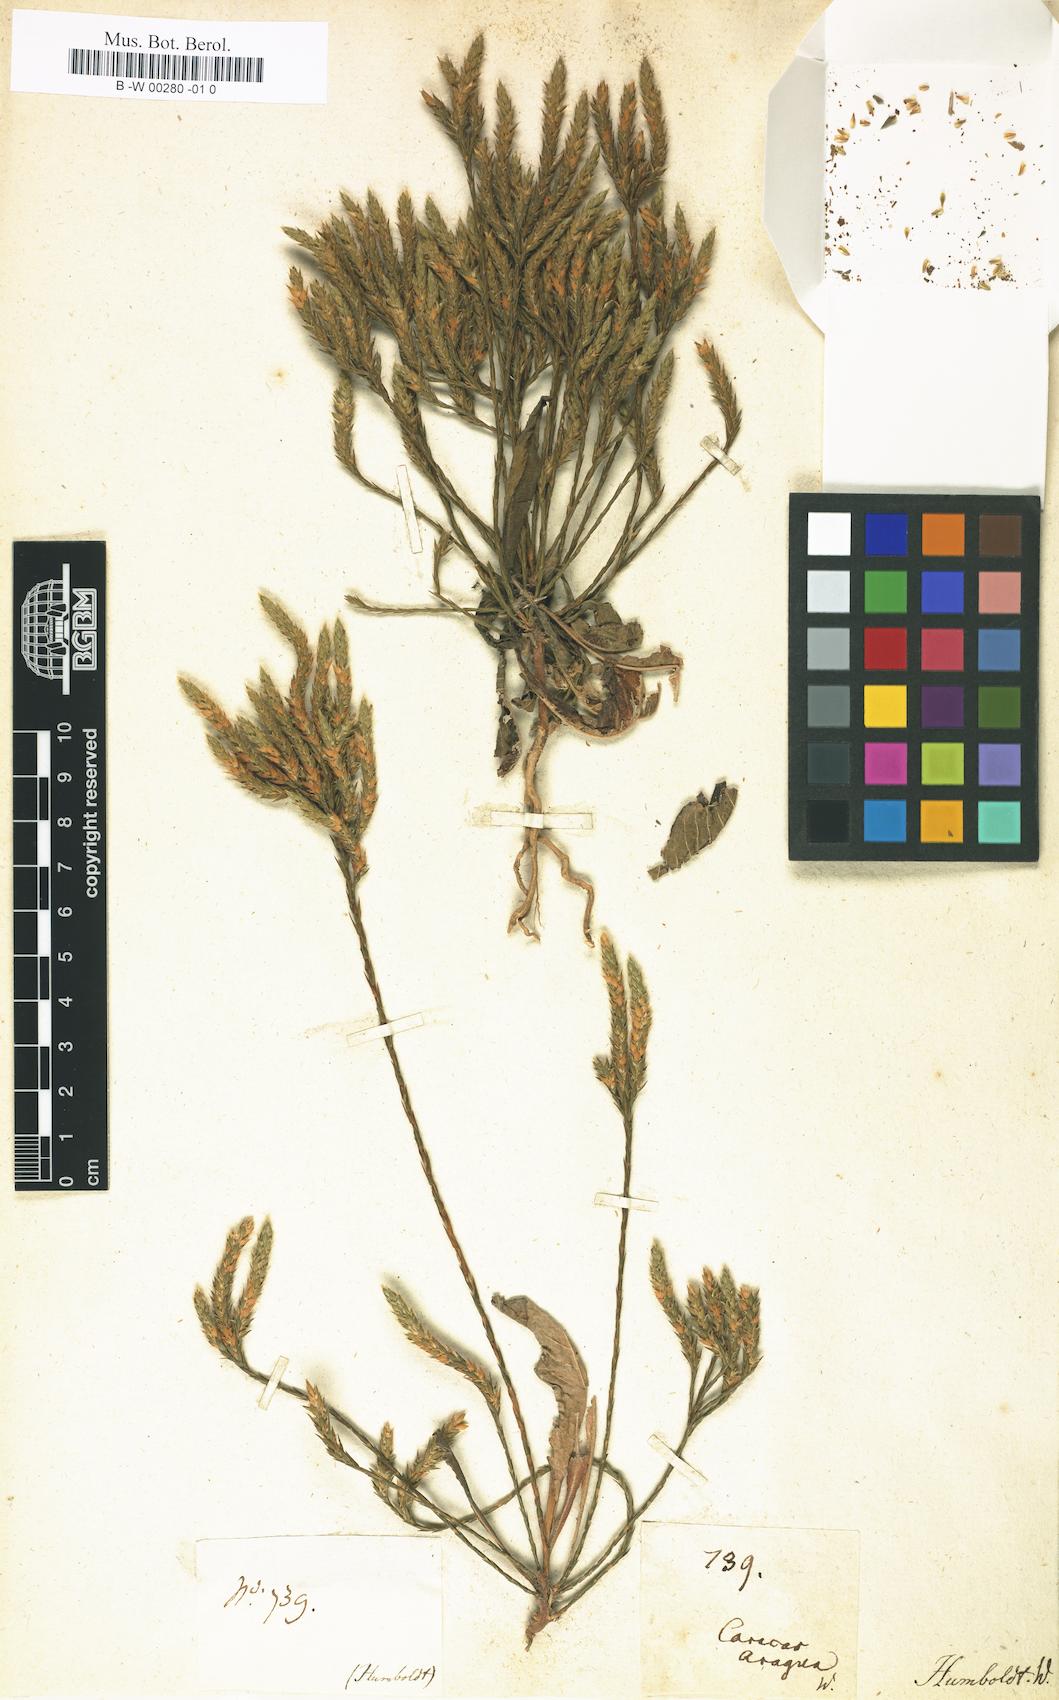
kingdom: Plantae
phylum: Tracheophyta
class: Magnoliopsida
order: Lamiales
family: Acanthaceae
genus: Elytraria
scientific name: Elytraria imbricata
